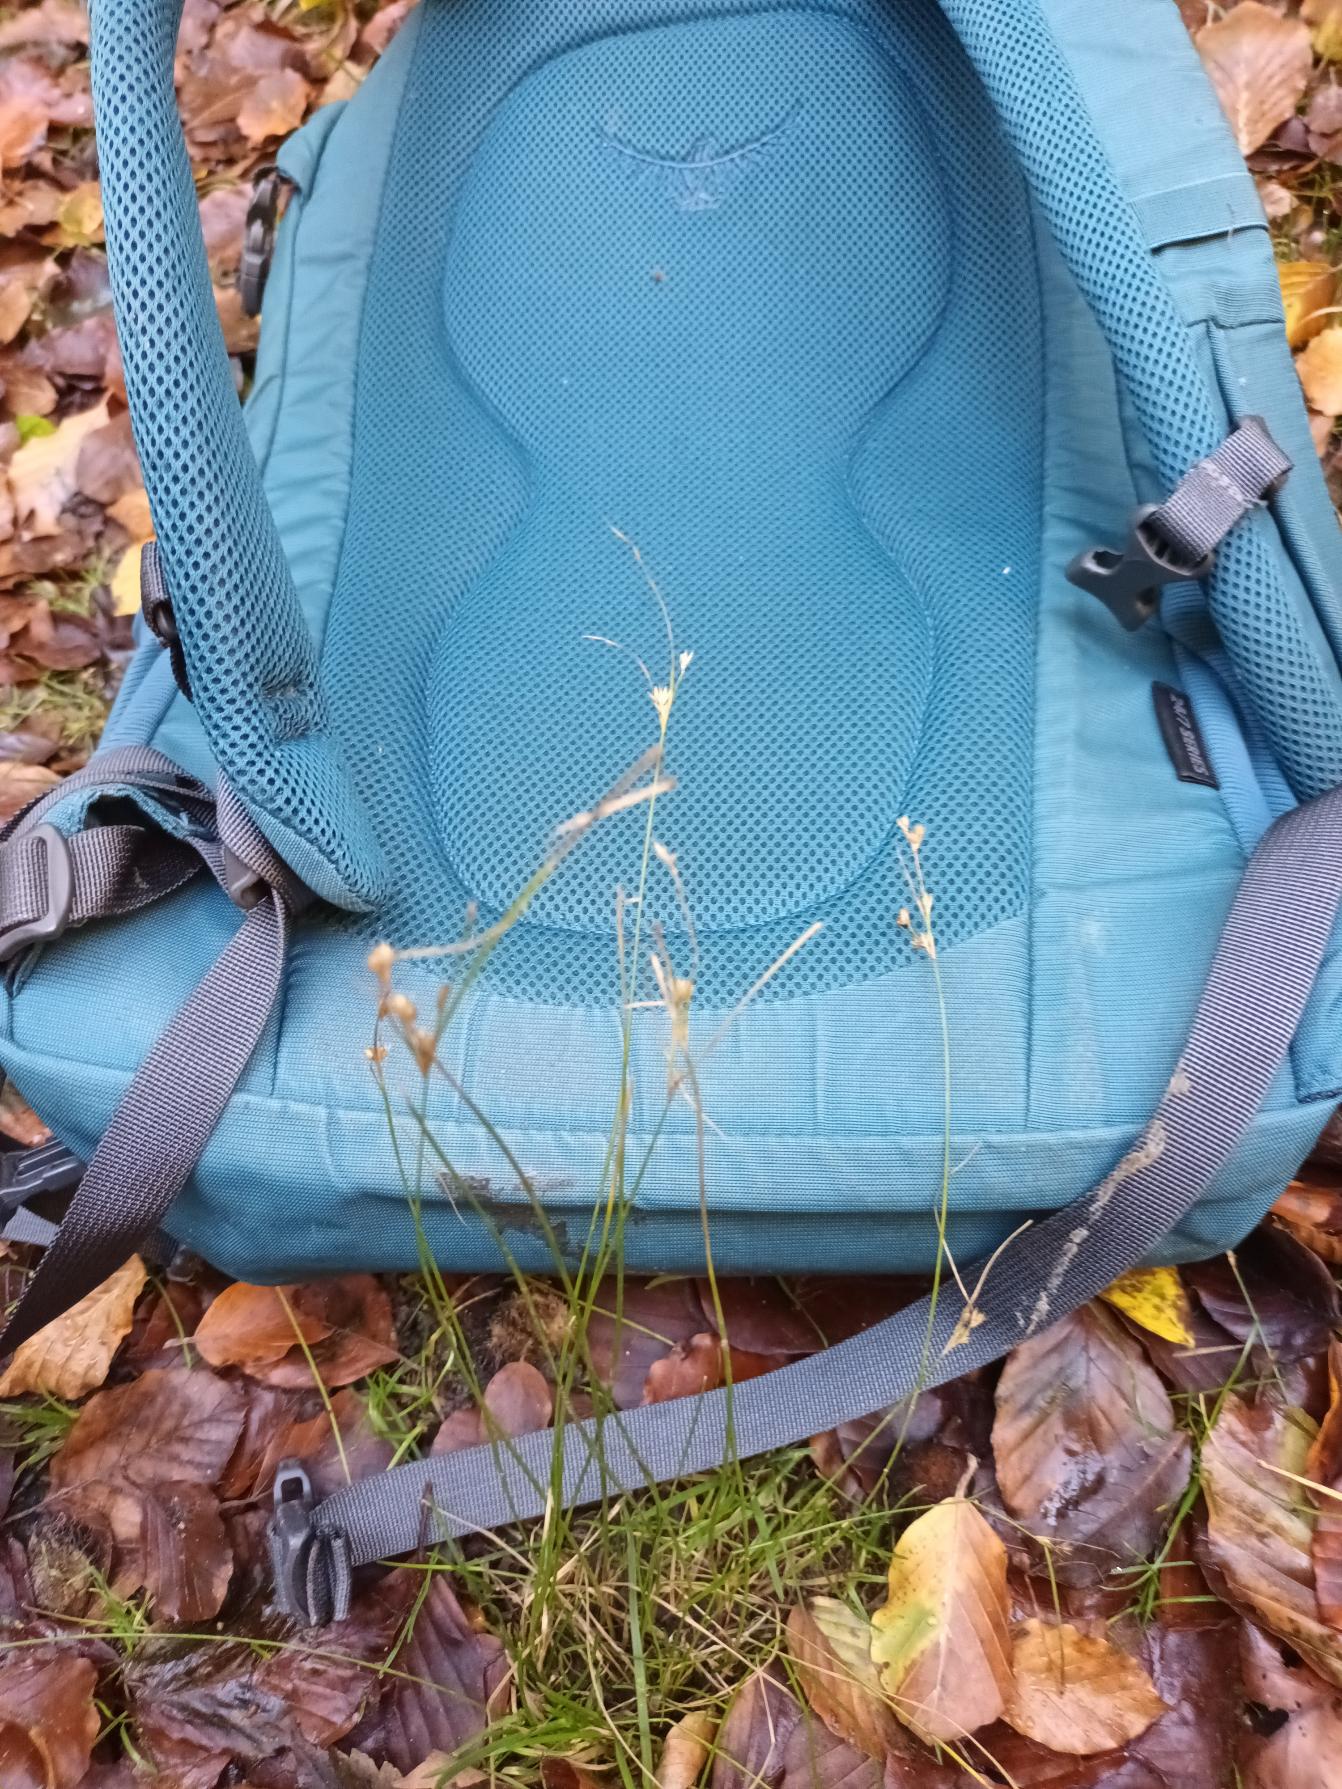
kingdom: Plantae
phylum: Tracheophyta
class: Liliopsida
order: Poales
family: Juncaceae
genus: Juncus
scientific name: Juncus tenuis
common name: Tue-siv
